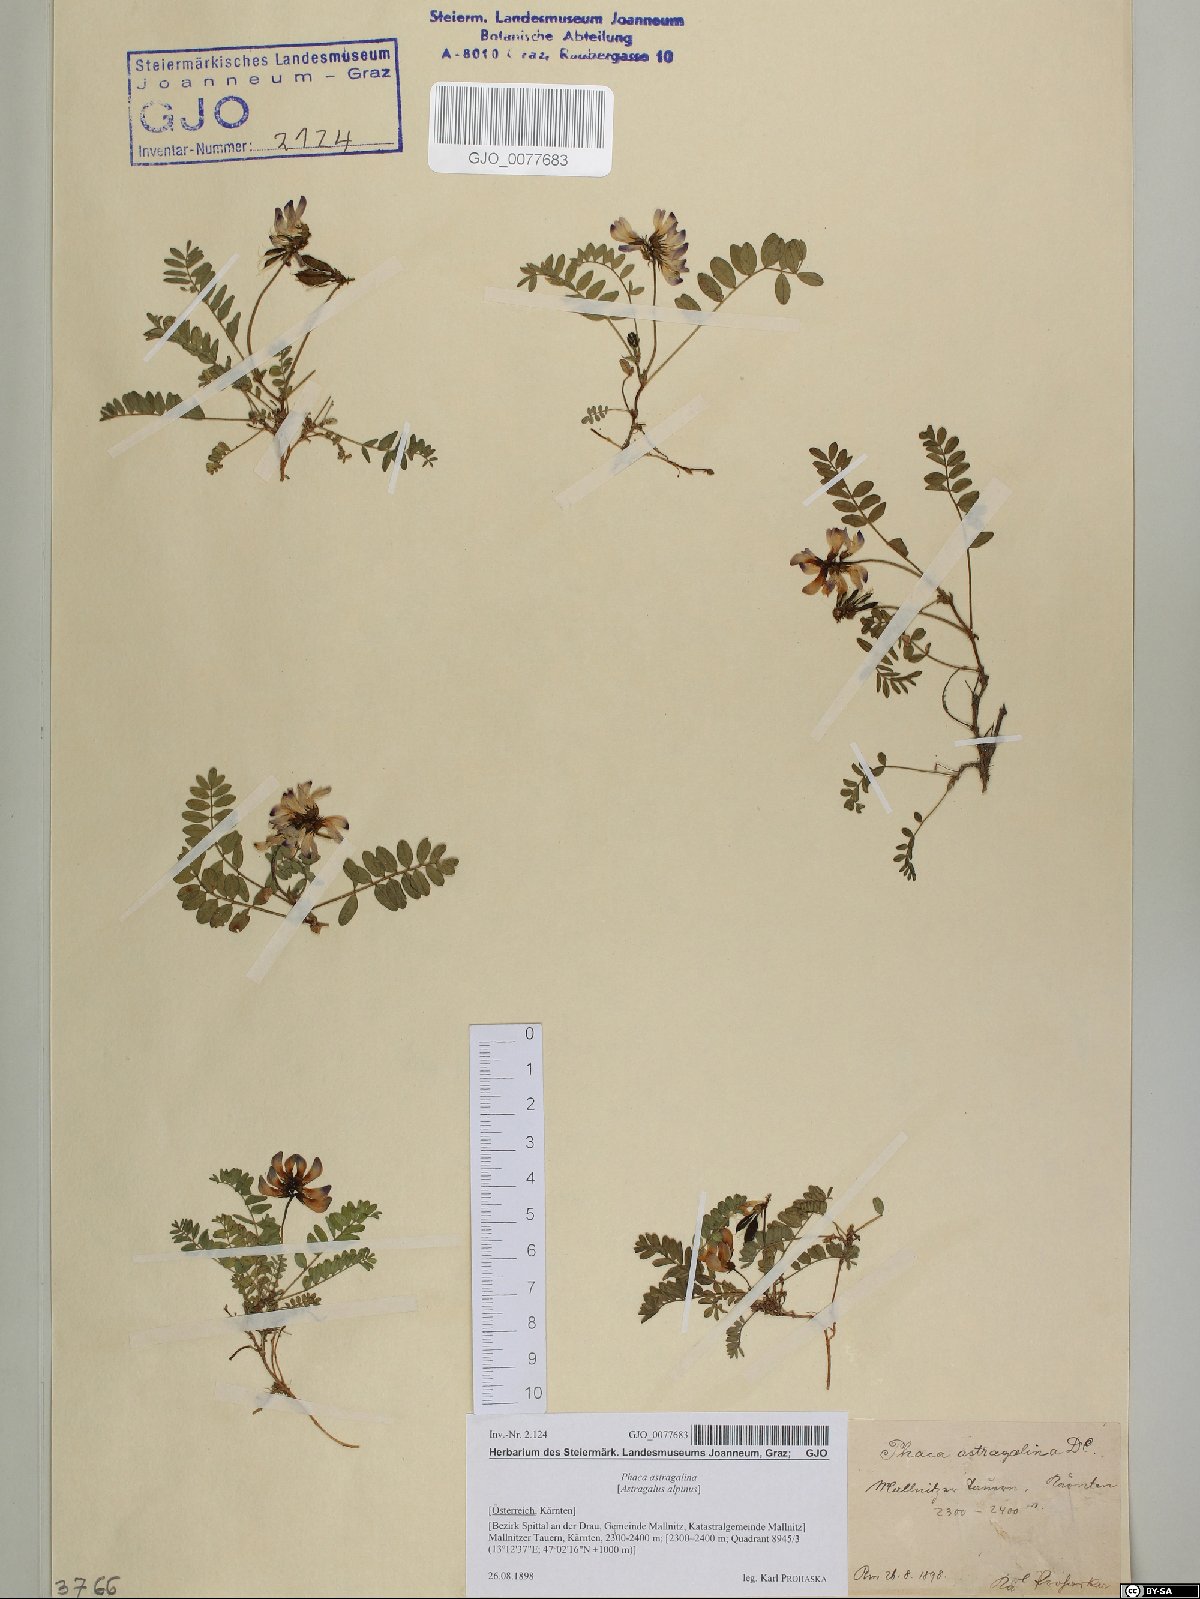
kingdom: Plantae
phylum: Tracheophyta
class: Magnoliopsida
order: Fabales
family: Fabaceae
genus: Astragalus
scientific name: Astragalus alpinus
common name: Alpine milk-vetch
